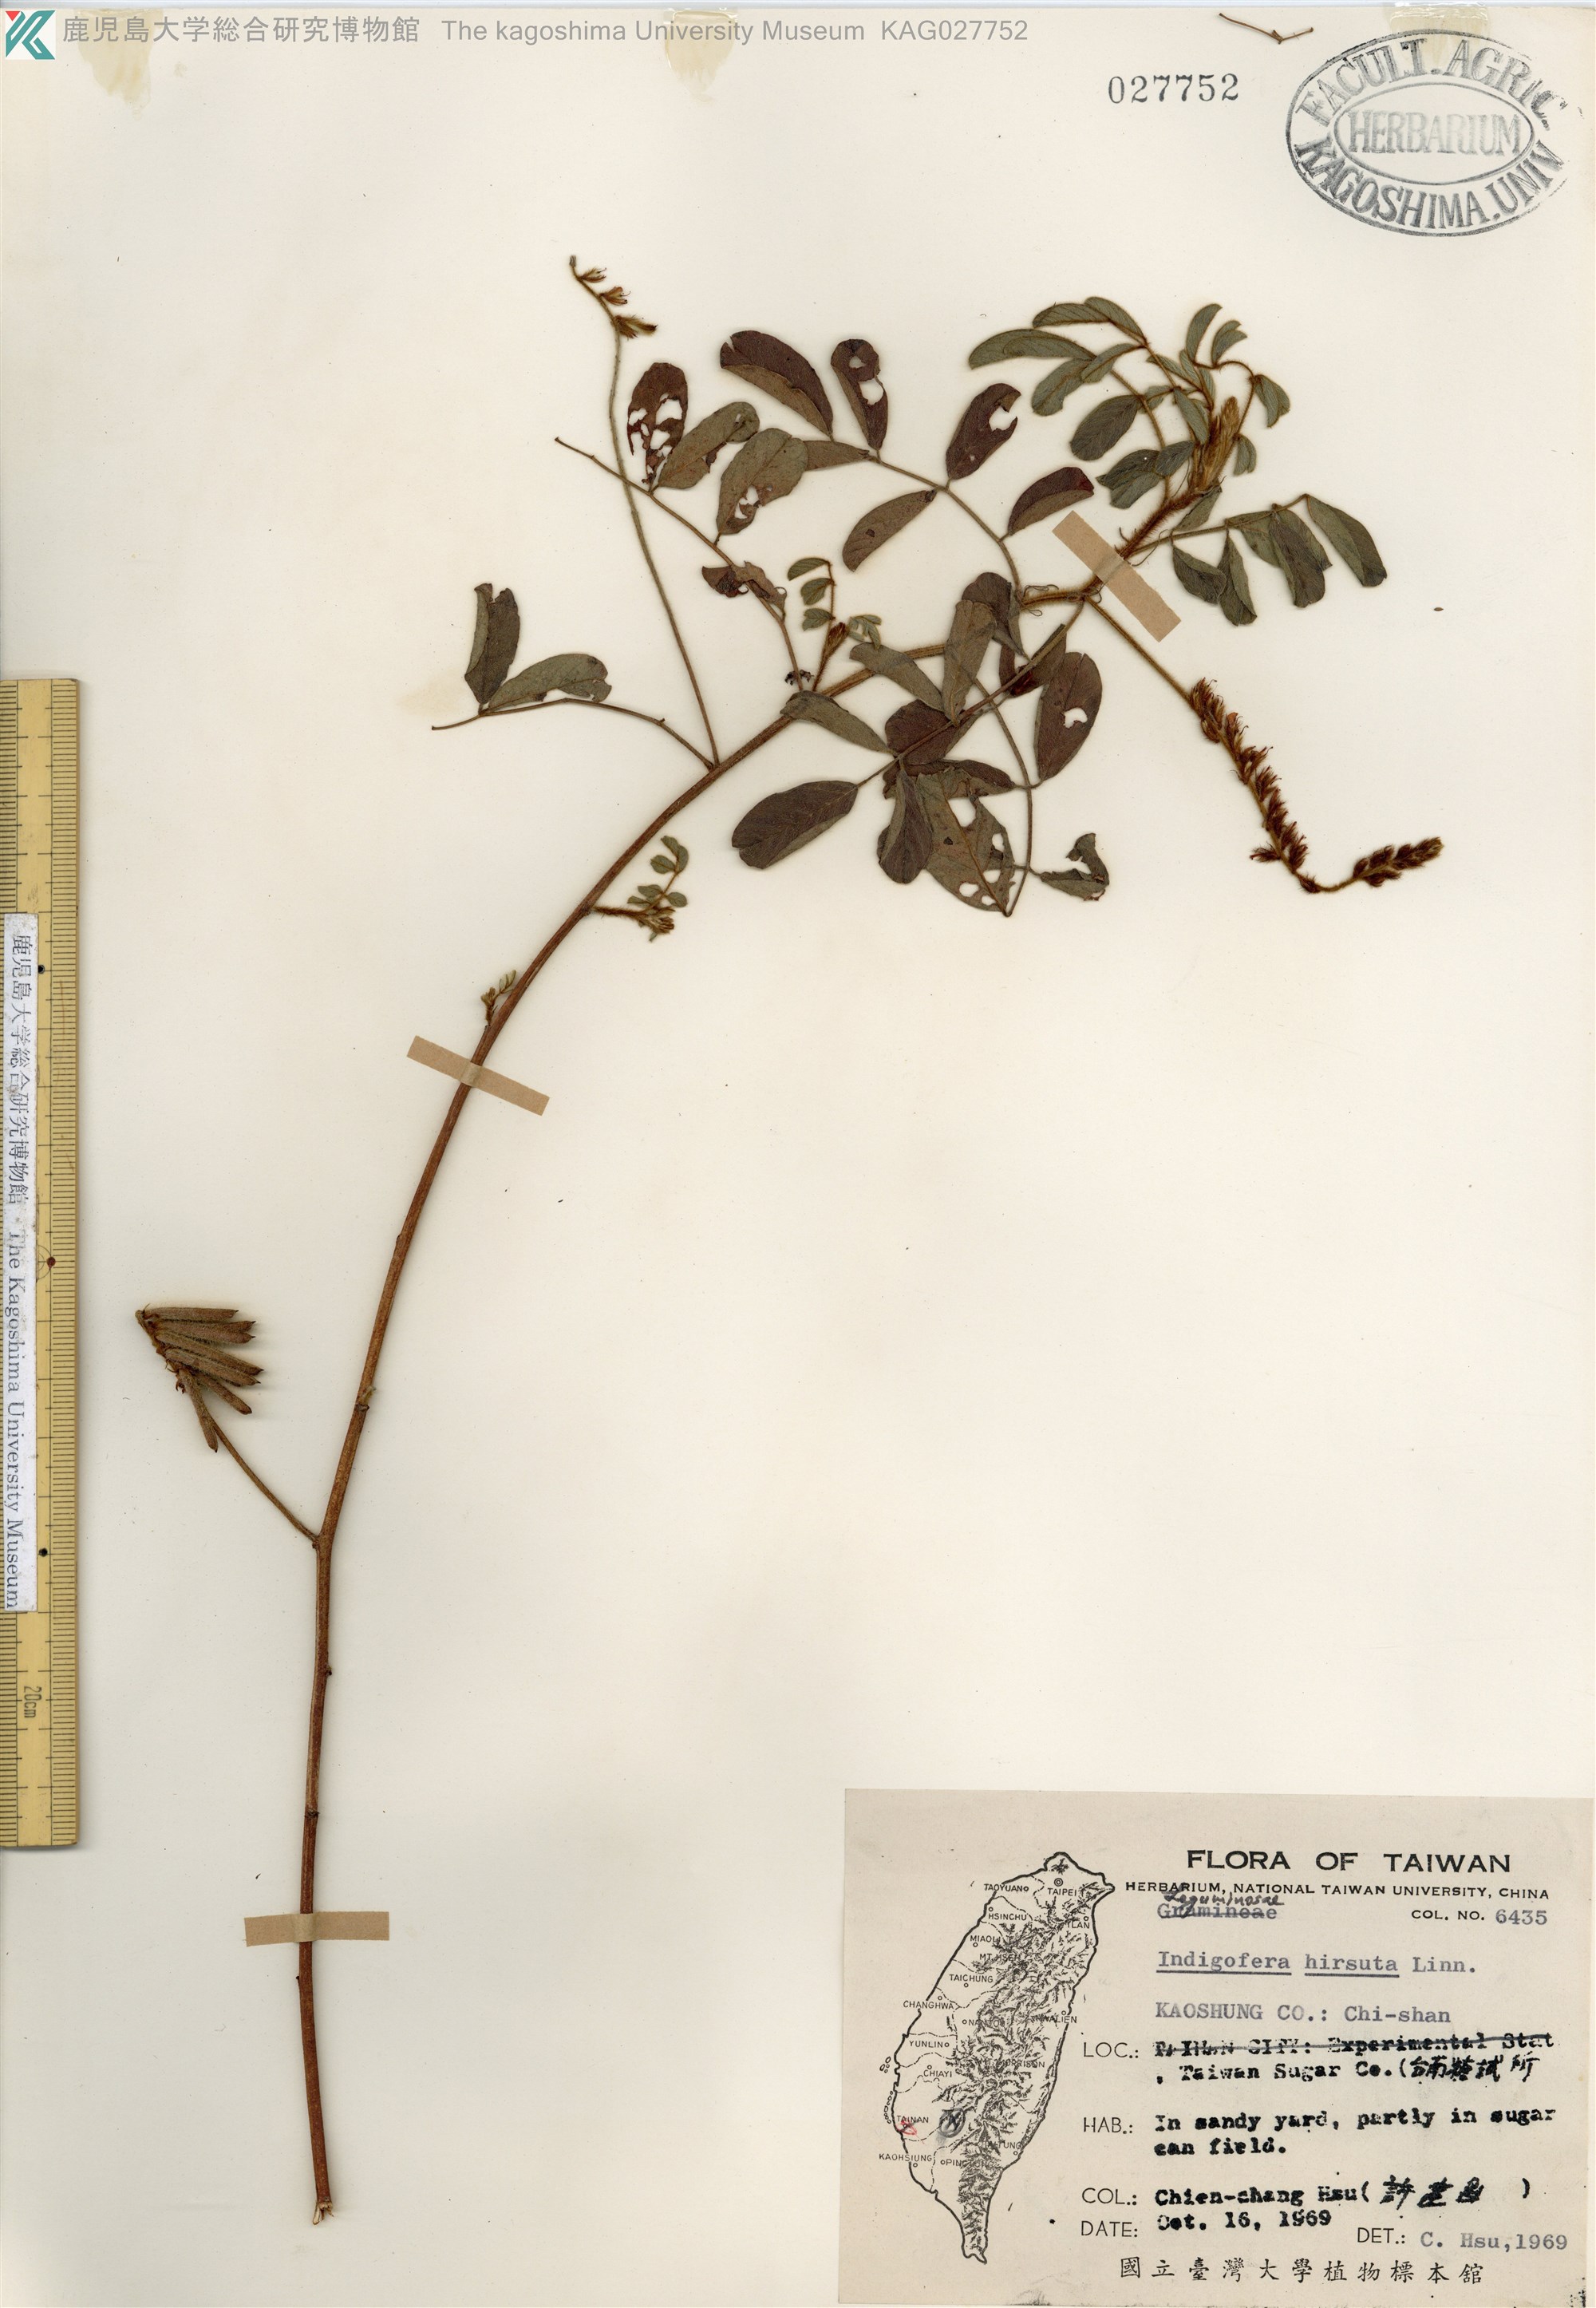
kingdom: Plantae
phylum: Tracheophyta
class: Magnoliopsida
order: Fabales
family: Fabaceae
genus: Indigofera
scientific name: Indigofera hirsuta
